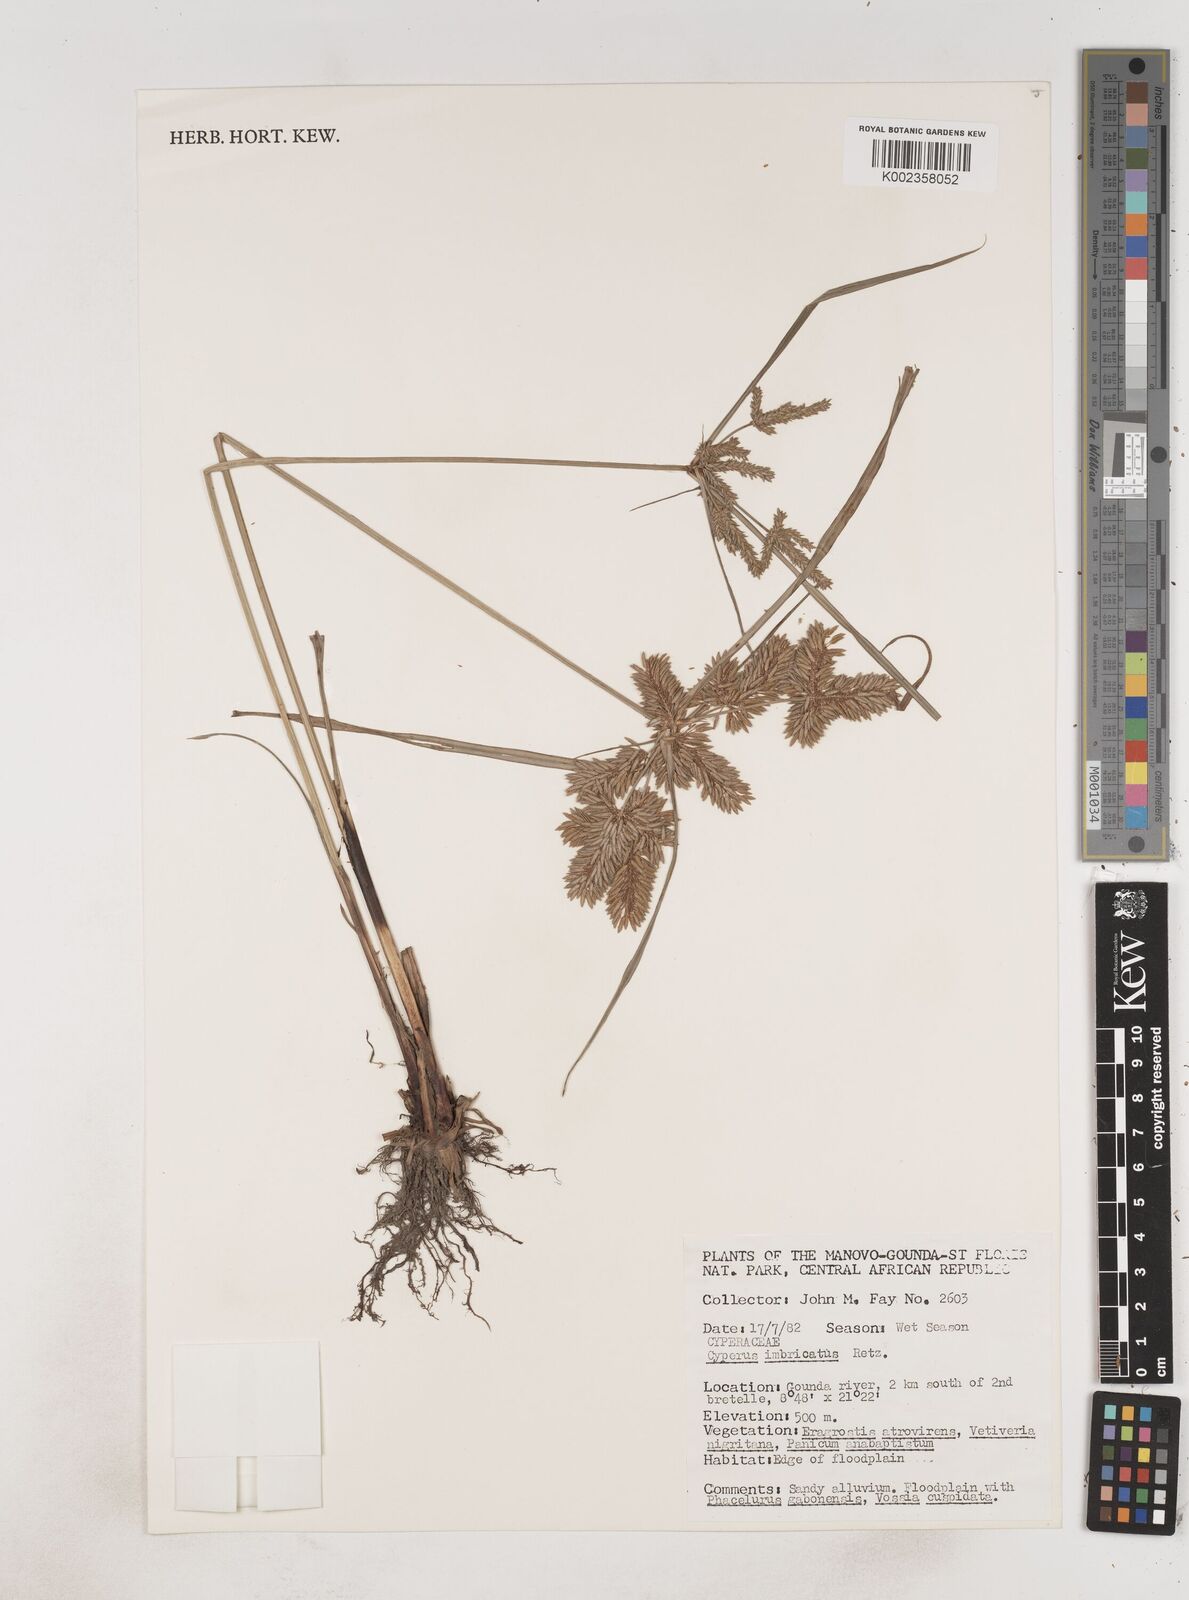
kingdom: Plantae
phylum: Tracheophyta
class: Liliopsida
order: Poales
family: Cyperaceae
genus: Cyperus
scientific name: Cyperus imbricatus
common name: Shingle flatsedge
